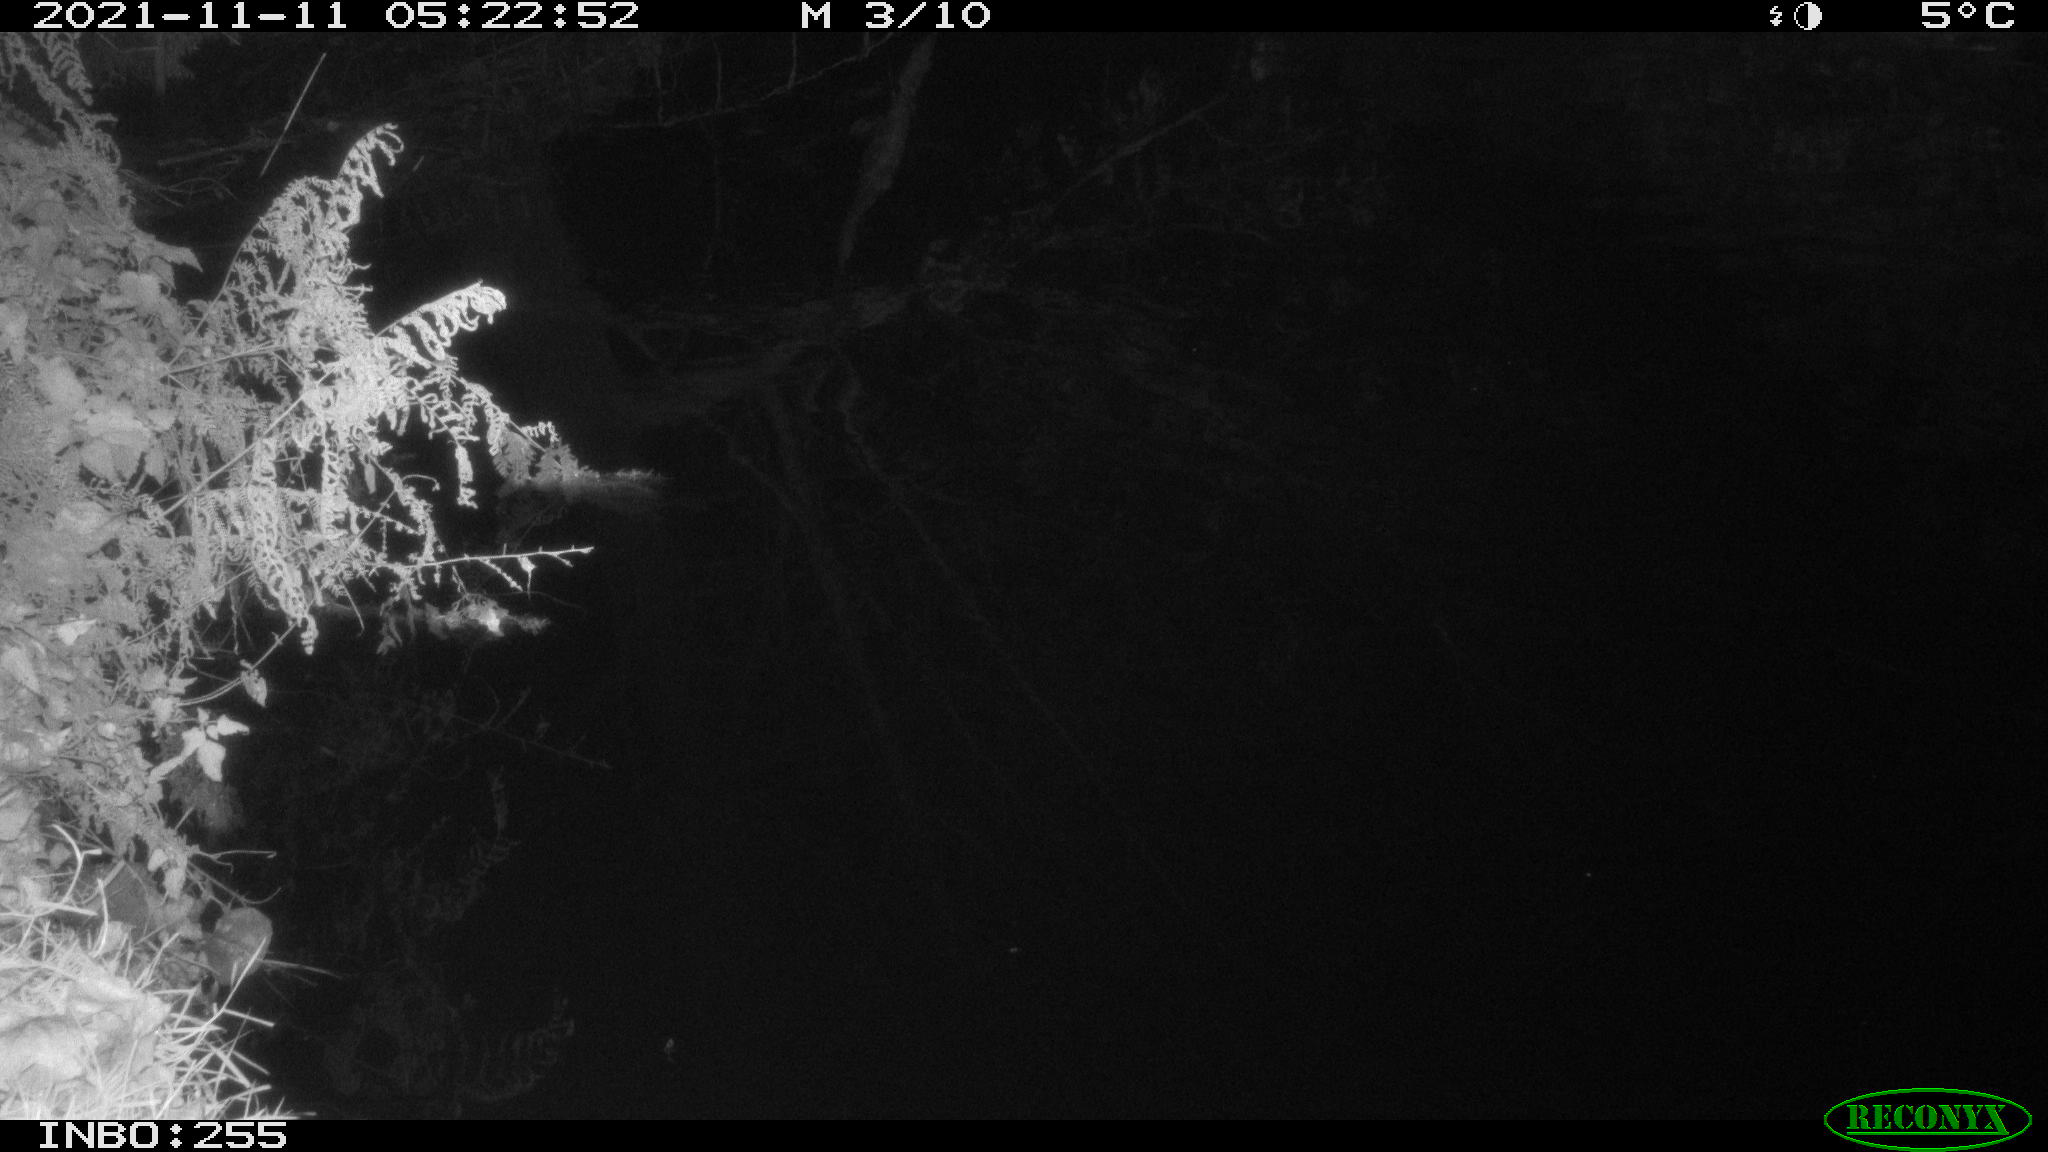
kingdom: Animalia
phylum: Chordata
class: Aves
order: Anseriformes
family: Anatidae
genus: Anas
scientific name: Anas platyrhynchos
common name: Mallard
